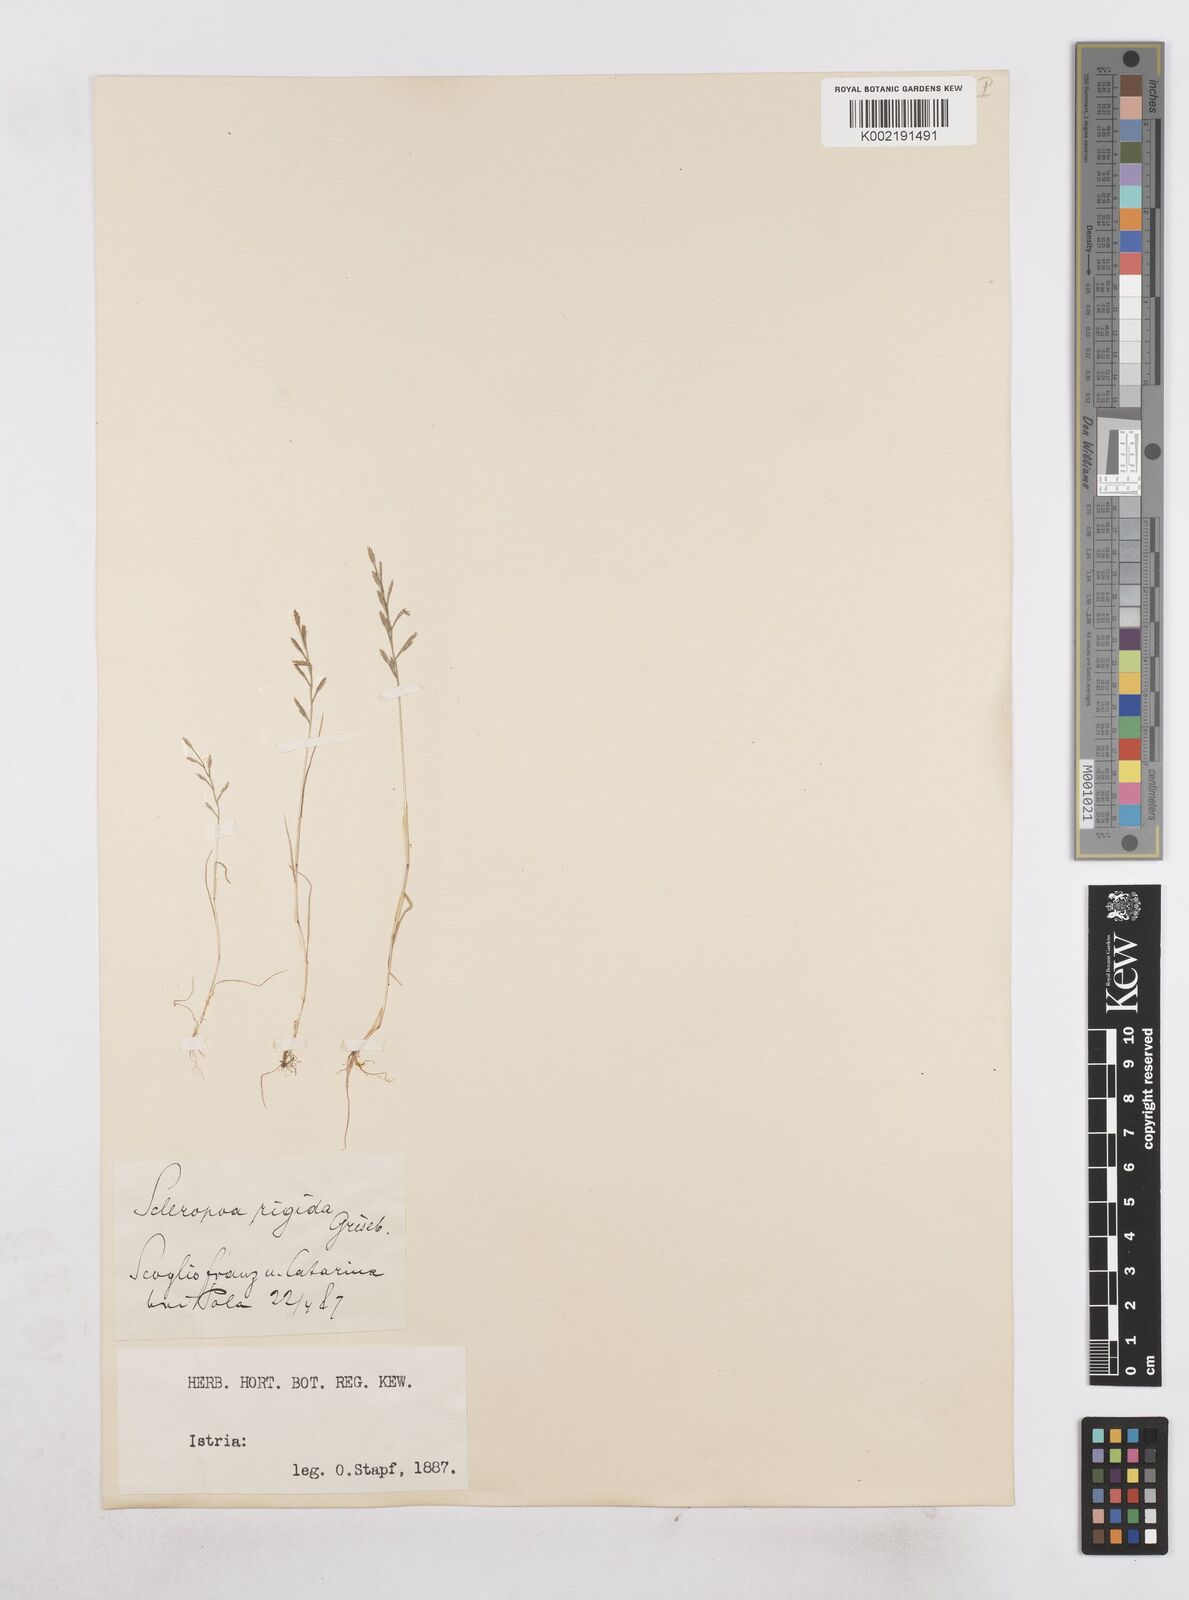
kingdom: Plantae
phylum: Tracheophyta
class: Liliopsida
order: Poales
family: Poaceae
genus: Catapodium
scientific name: Catapodium rigidum
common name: Fern-grass
